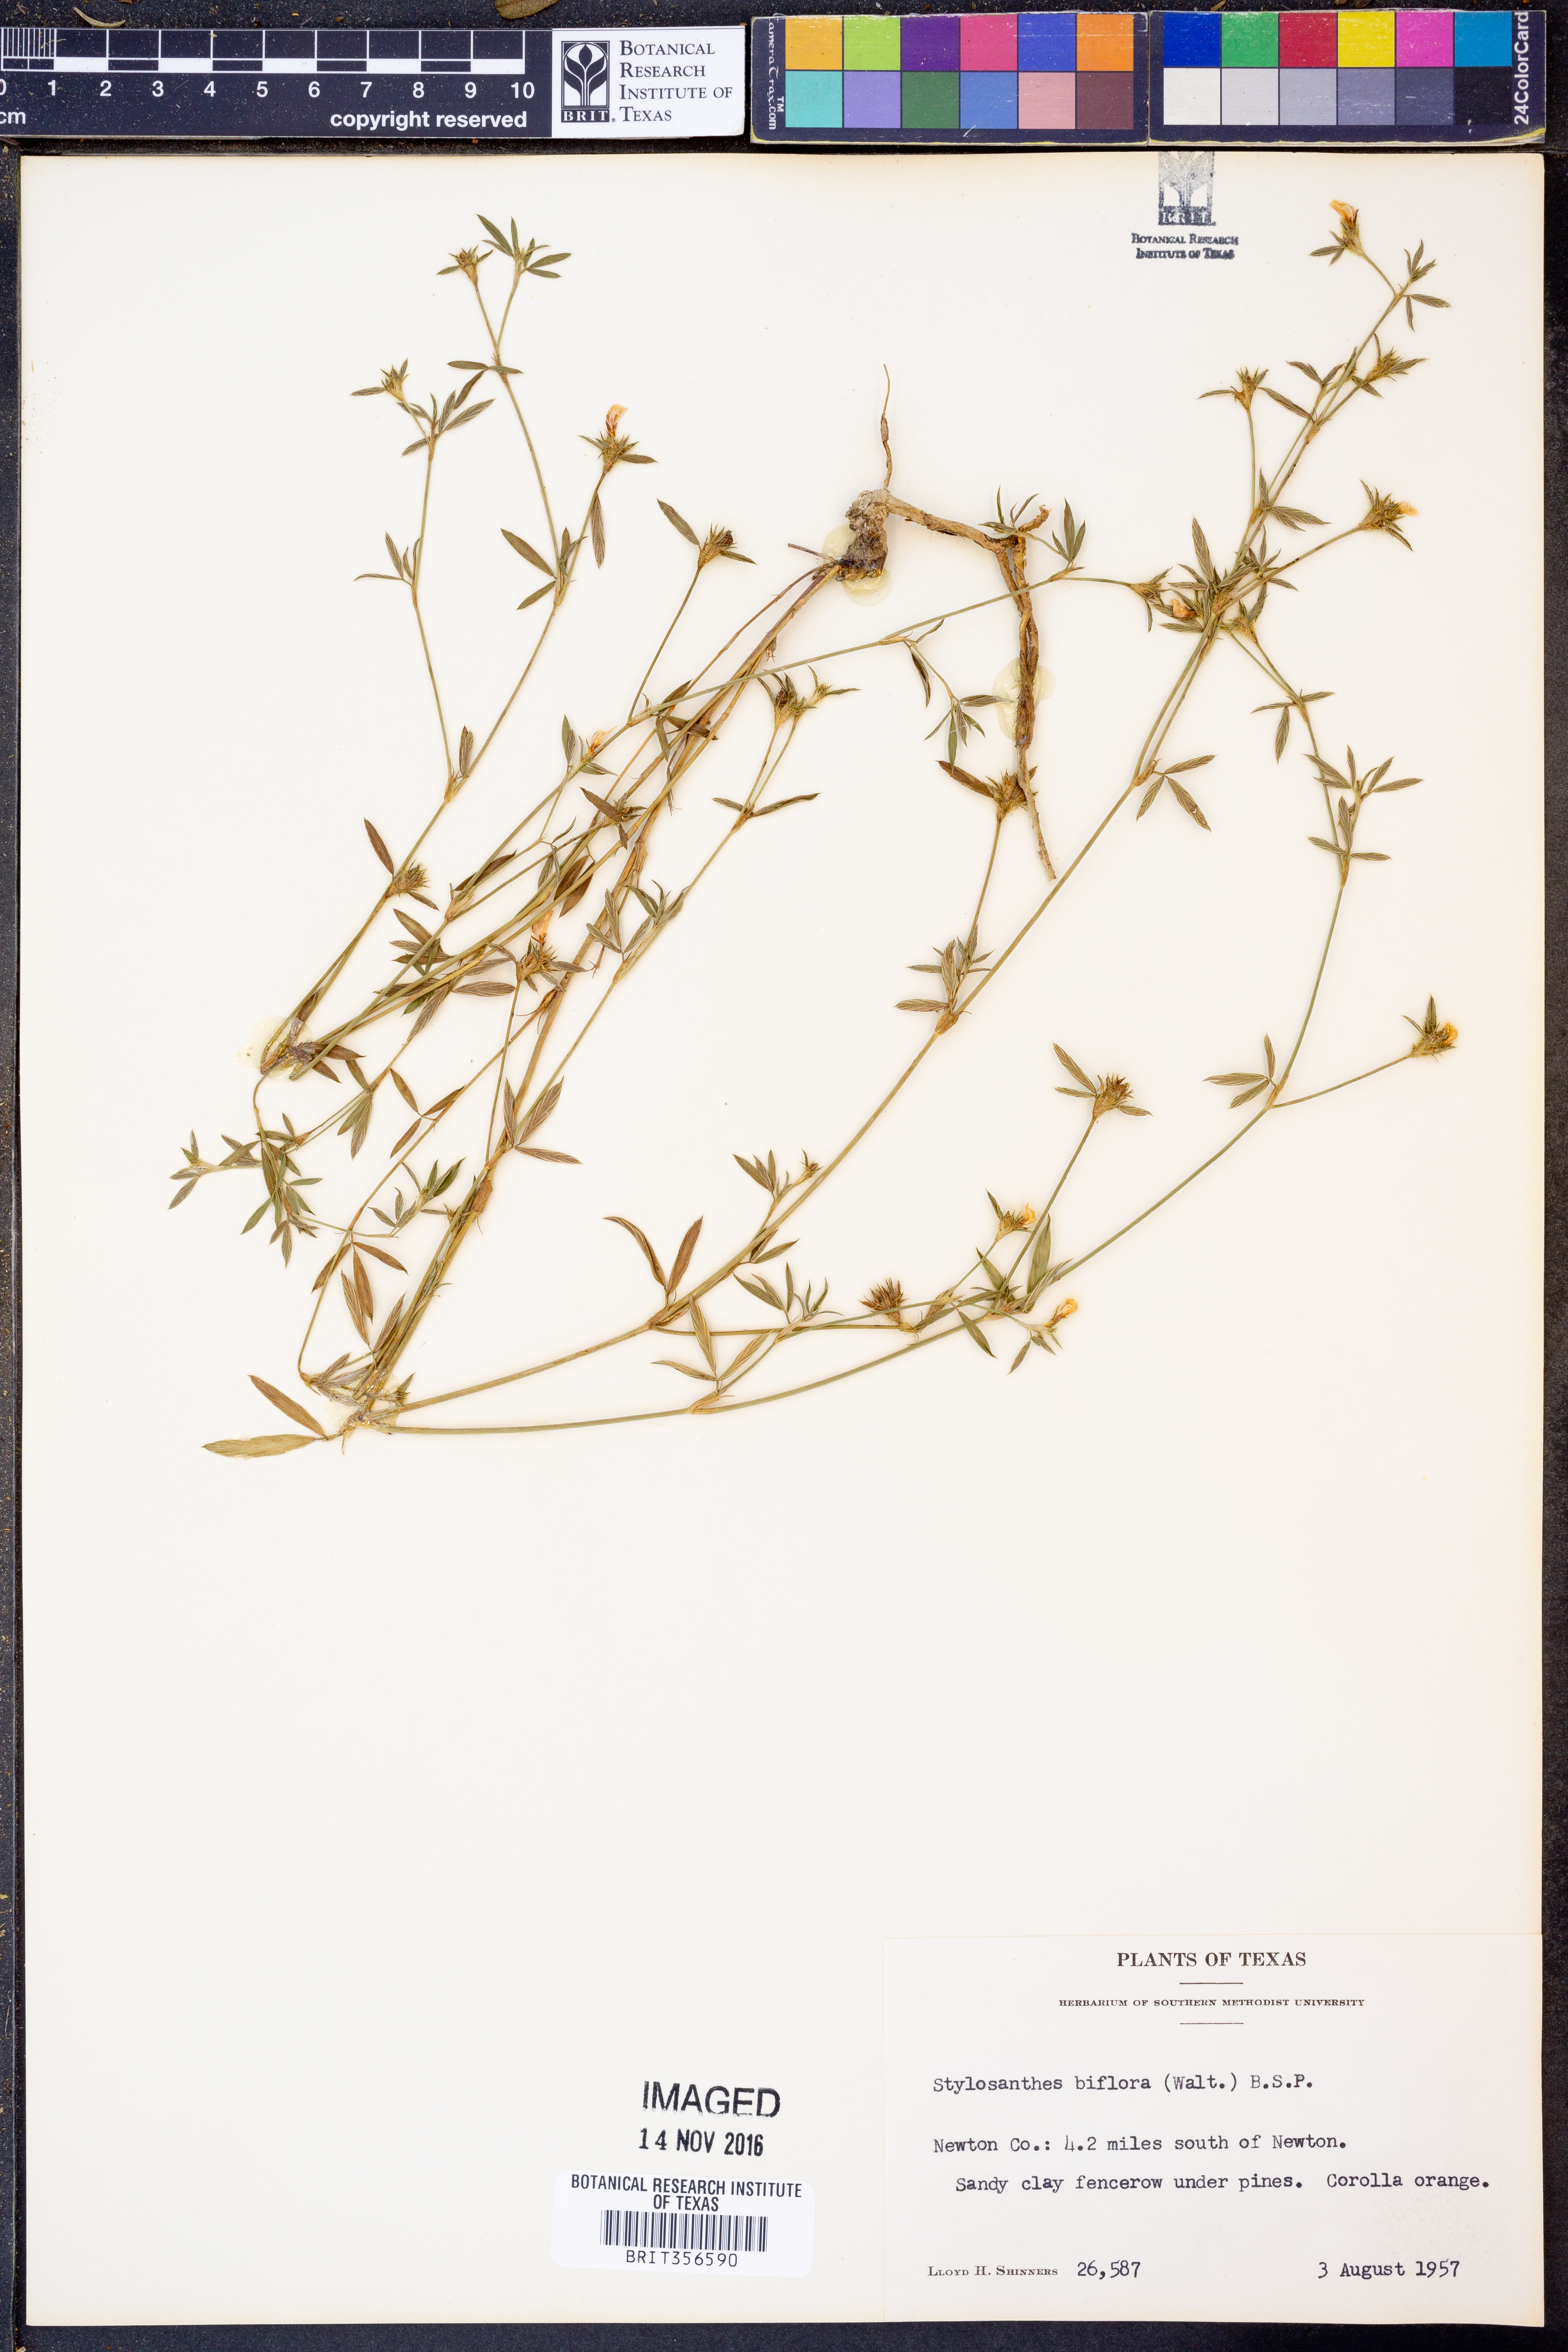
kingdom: Plantae
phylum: Tracheophyta
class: Magnoliopsida
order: Fabales
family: Fabaceae
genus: Stylosanthes
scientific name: Stylosanthes biflora
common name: Two-flower pencil-flower
